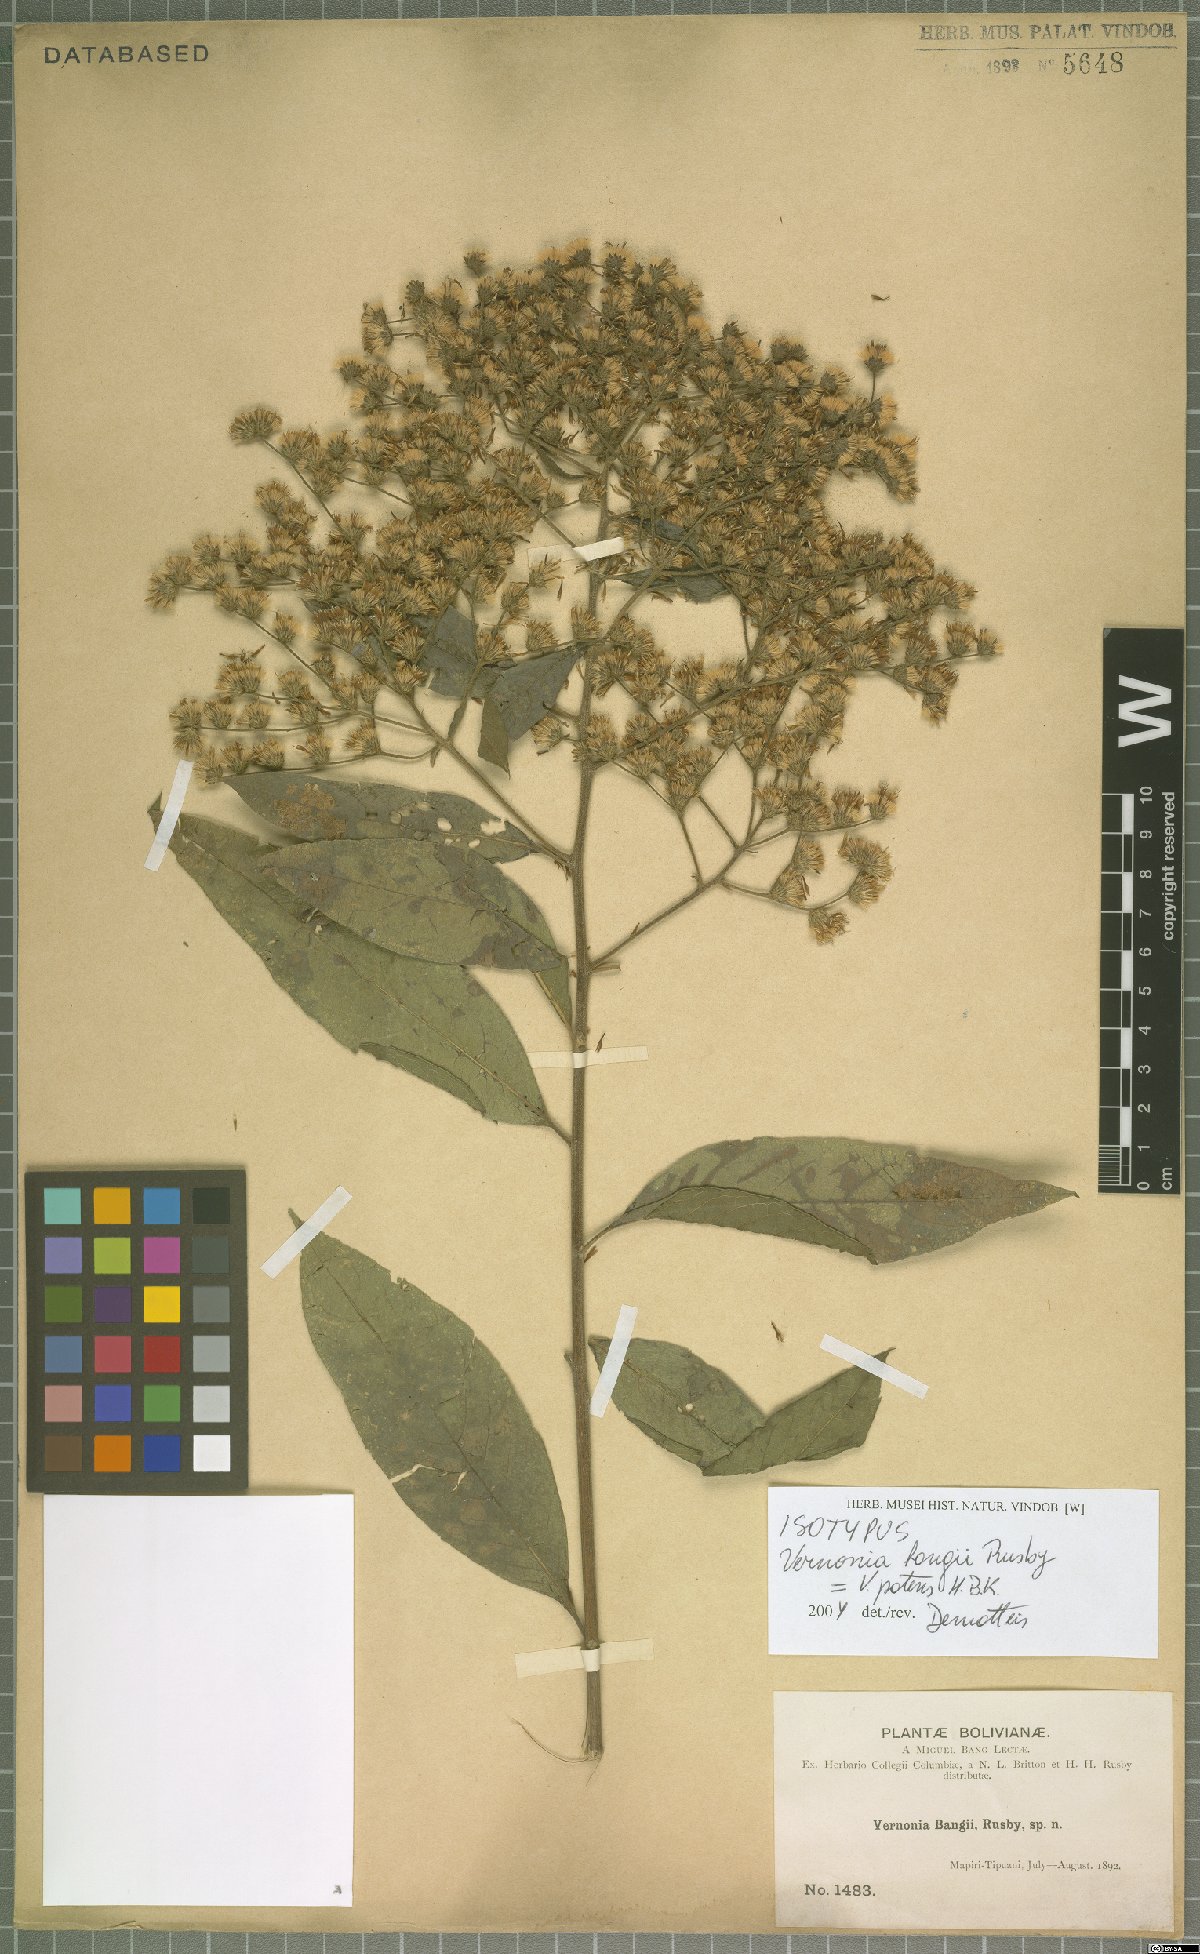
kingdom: Plantae
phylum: Tracheophyta
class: Magnoliopsida
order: Asterales
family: Asteraceae
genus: Vernonanthura
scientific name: Vernonanthura patens
